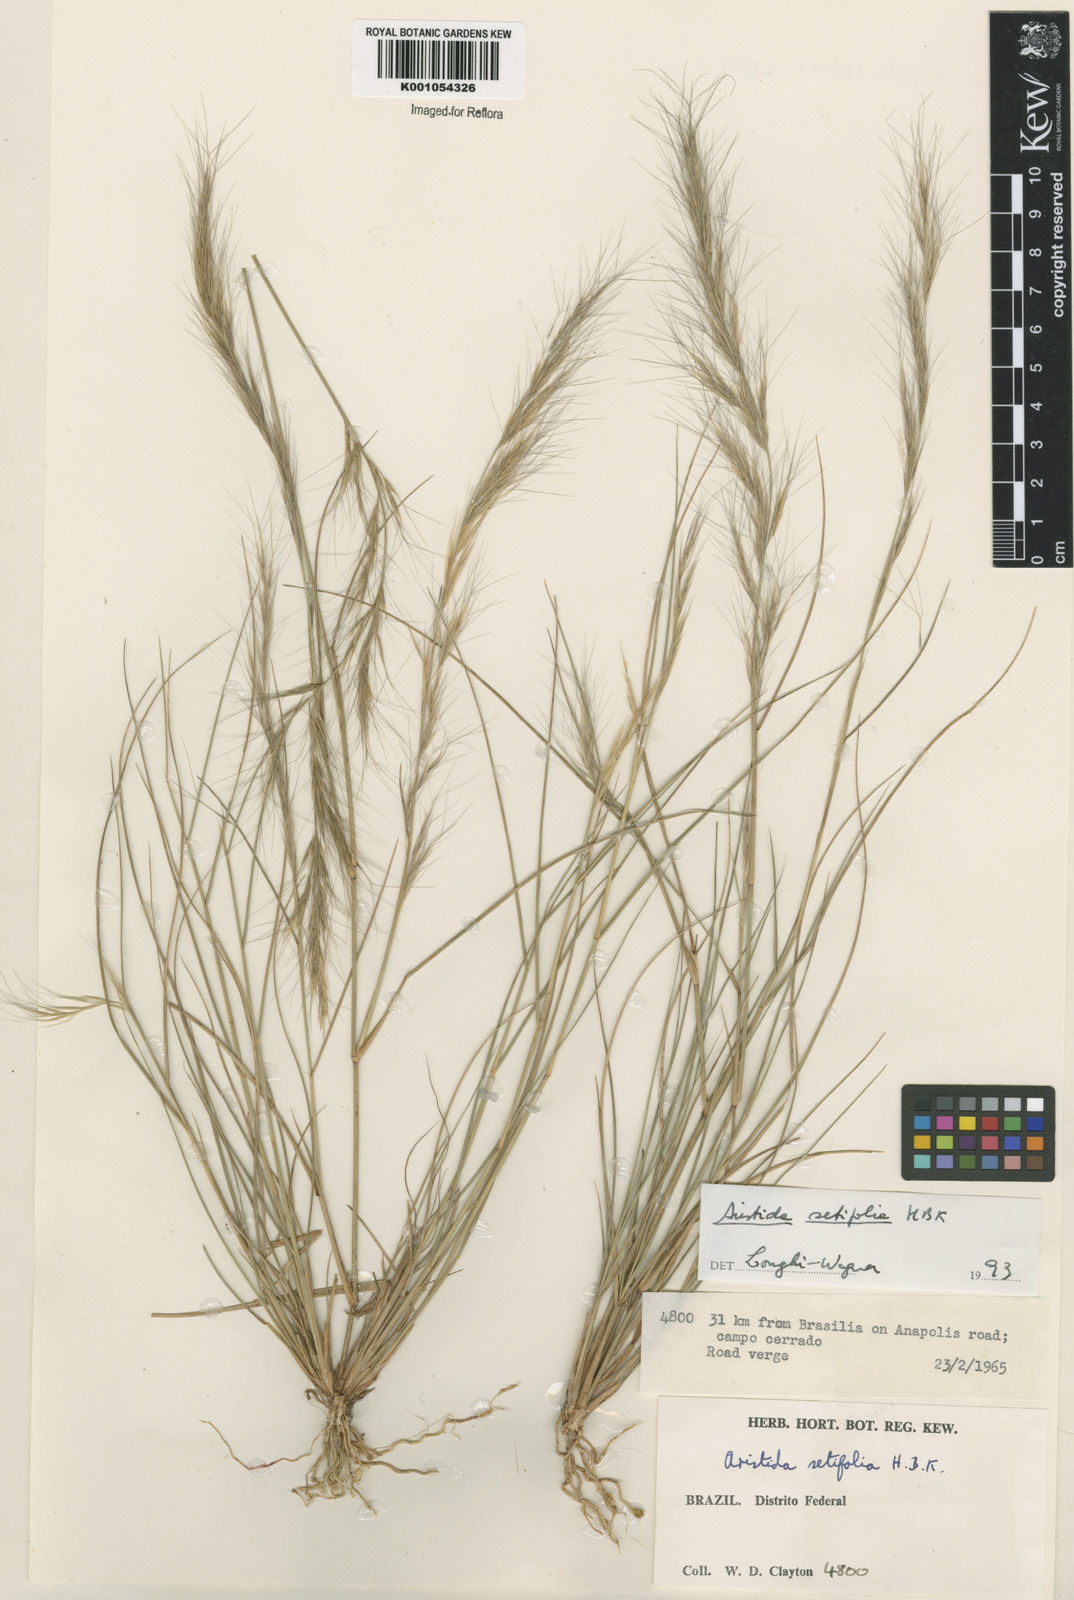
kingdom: Plantae
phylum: Tracheophyta
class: Liliopsida
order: Poales
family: Poaceae
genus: Aristida
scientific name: Aristida setifolia
